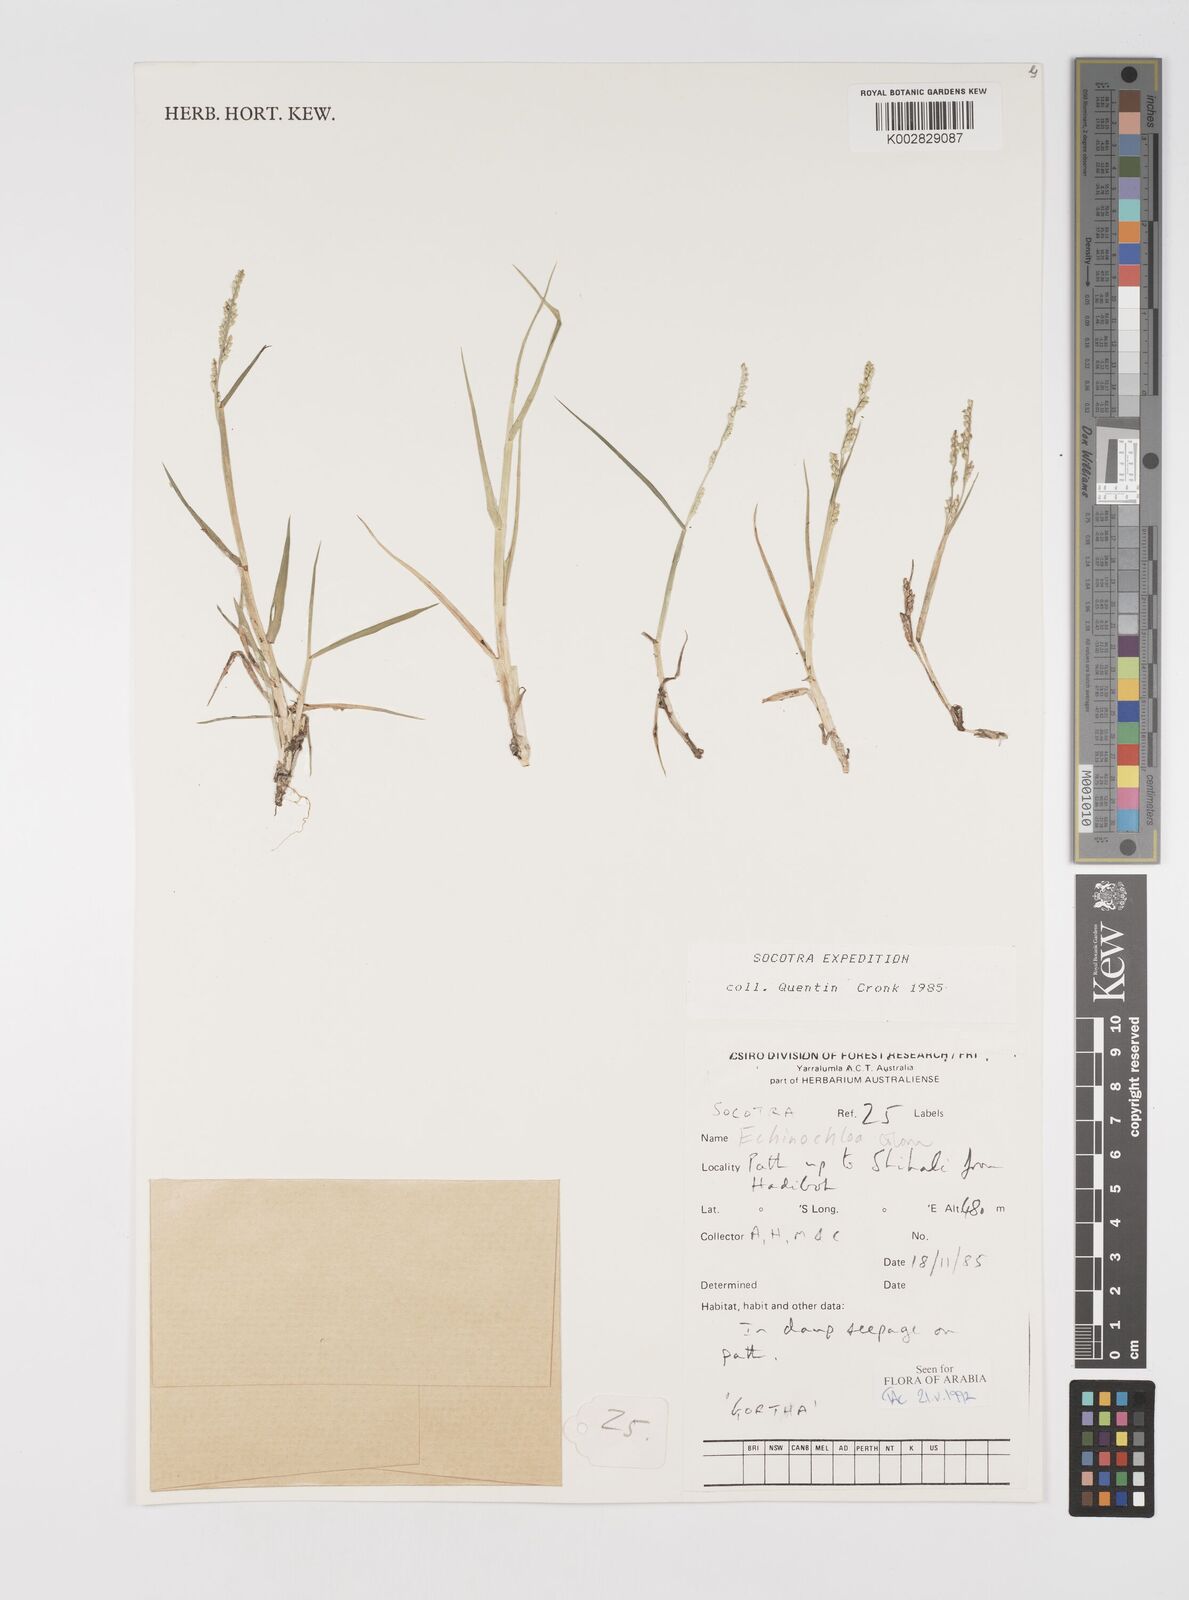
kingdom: Plantae
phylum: Tracheophyta
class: Liliopsida
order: Poales
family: Poaceae
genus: Echinochloa
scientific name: Echinochloa colonum
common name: Jungle rice
